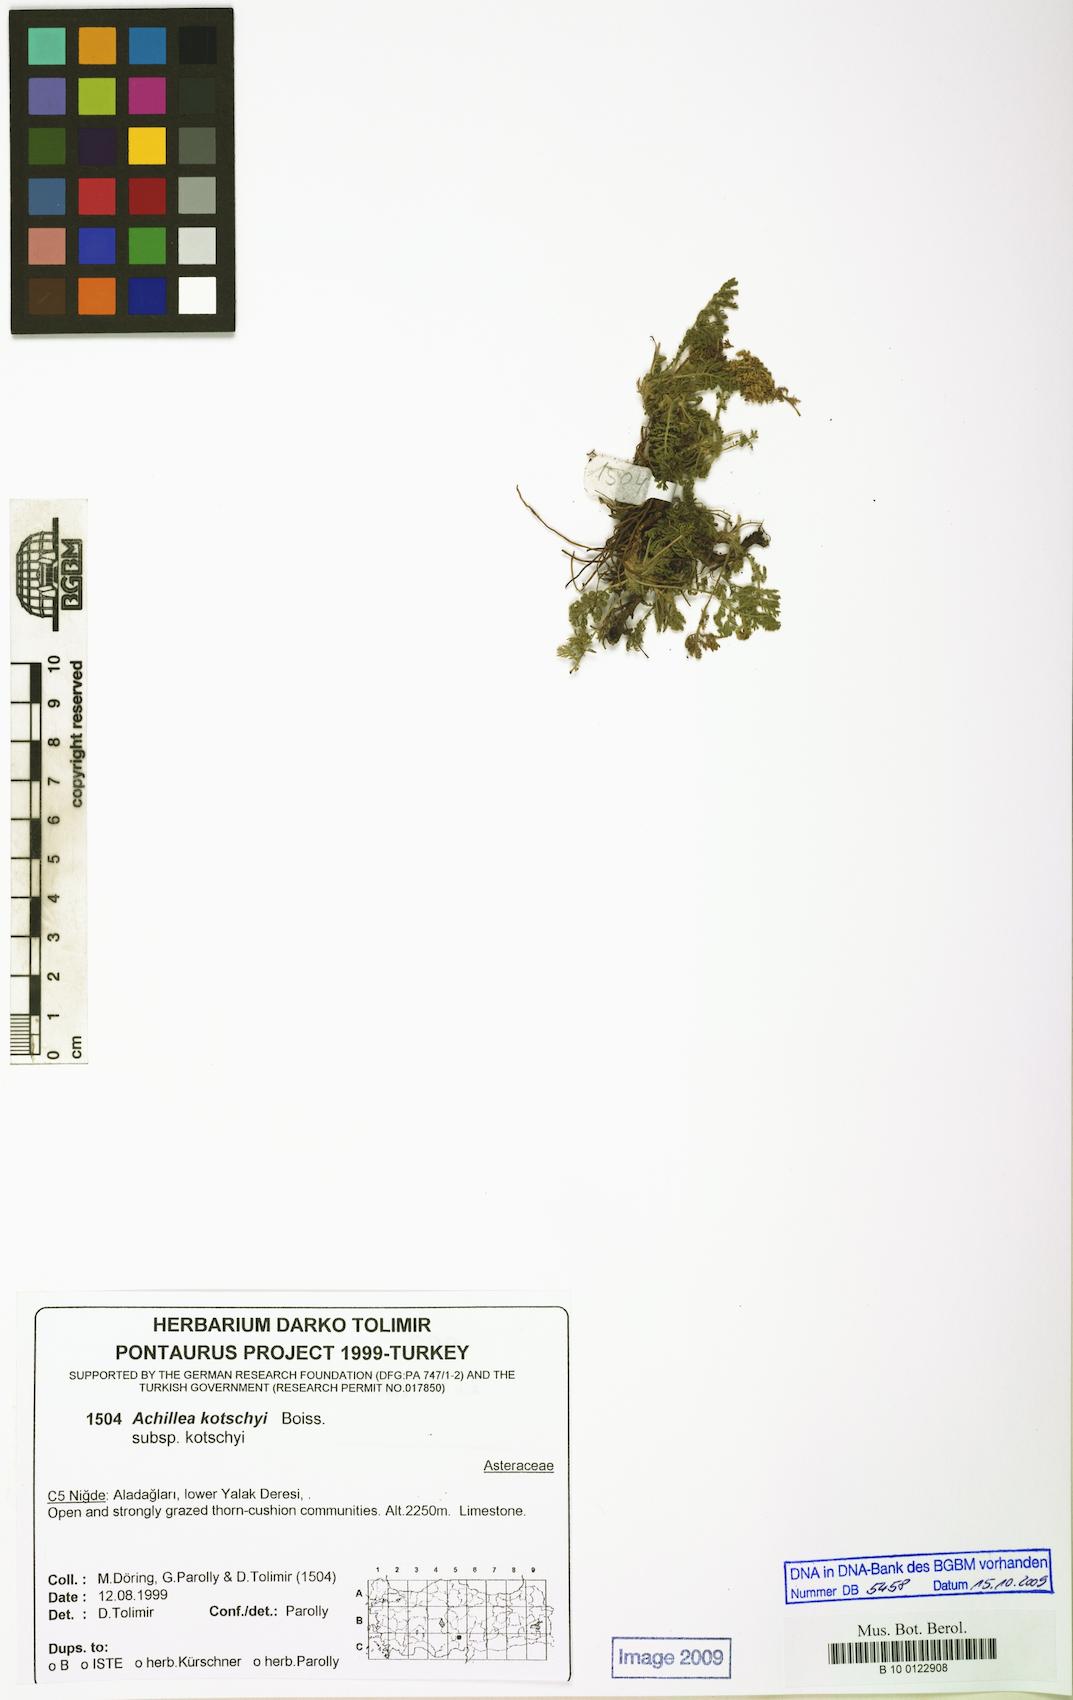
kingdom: Plantae
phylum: Tracheophyta
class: Magnoliopsida
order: Asterales
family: Asteraceae
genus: Achillea
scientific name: Achillea kotschyi
